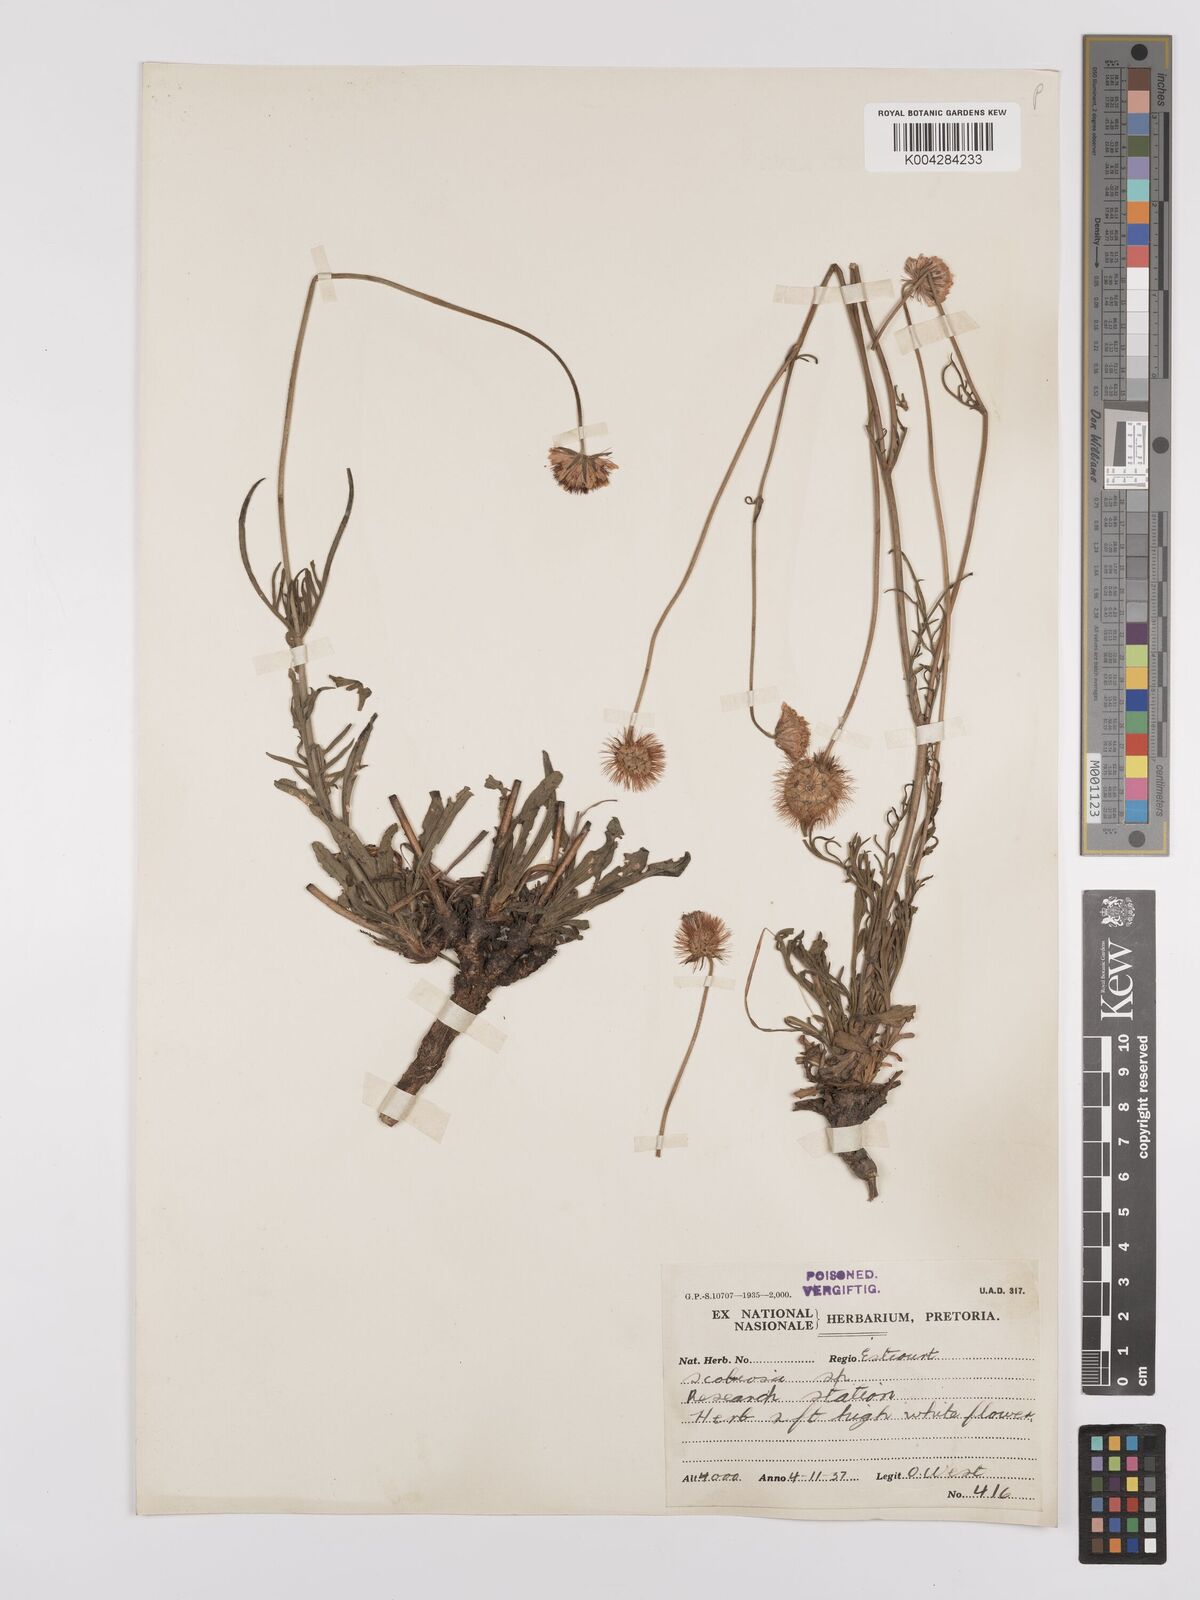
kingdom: Plantae
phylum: Tracheophyta
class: Magnoliopsida
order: Dipsacales
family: Caprifoliaceae
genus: Scabiosa
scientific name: Scabiosa columbaria
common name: Small scabious
